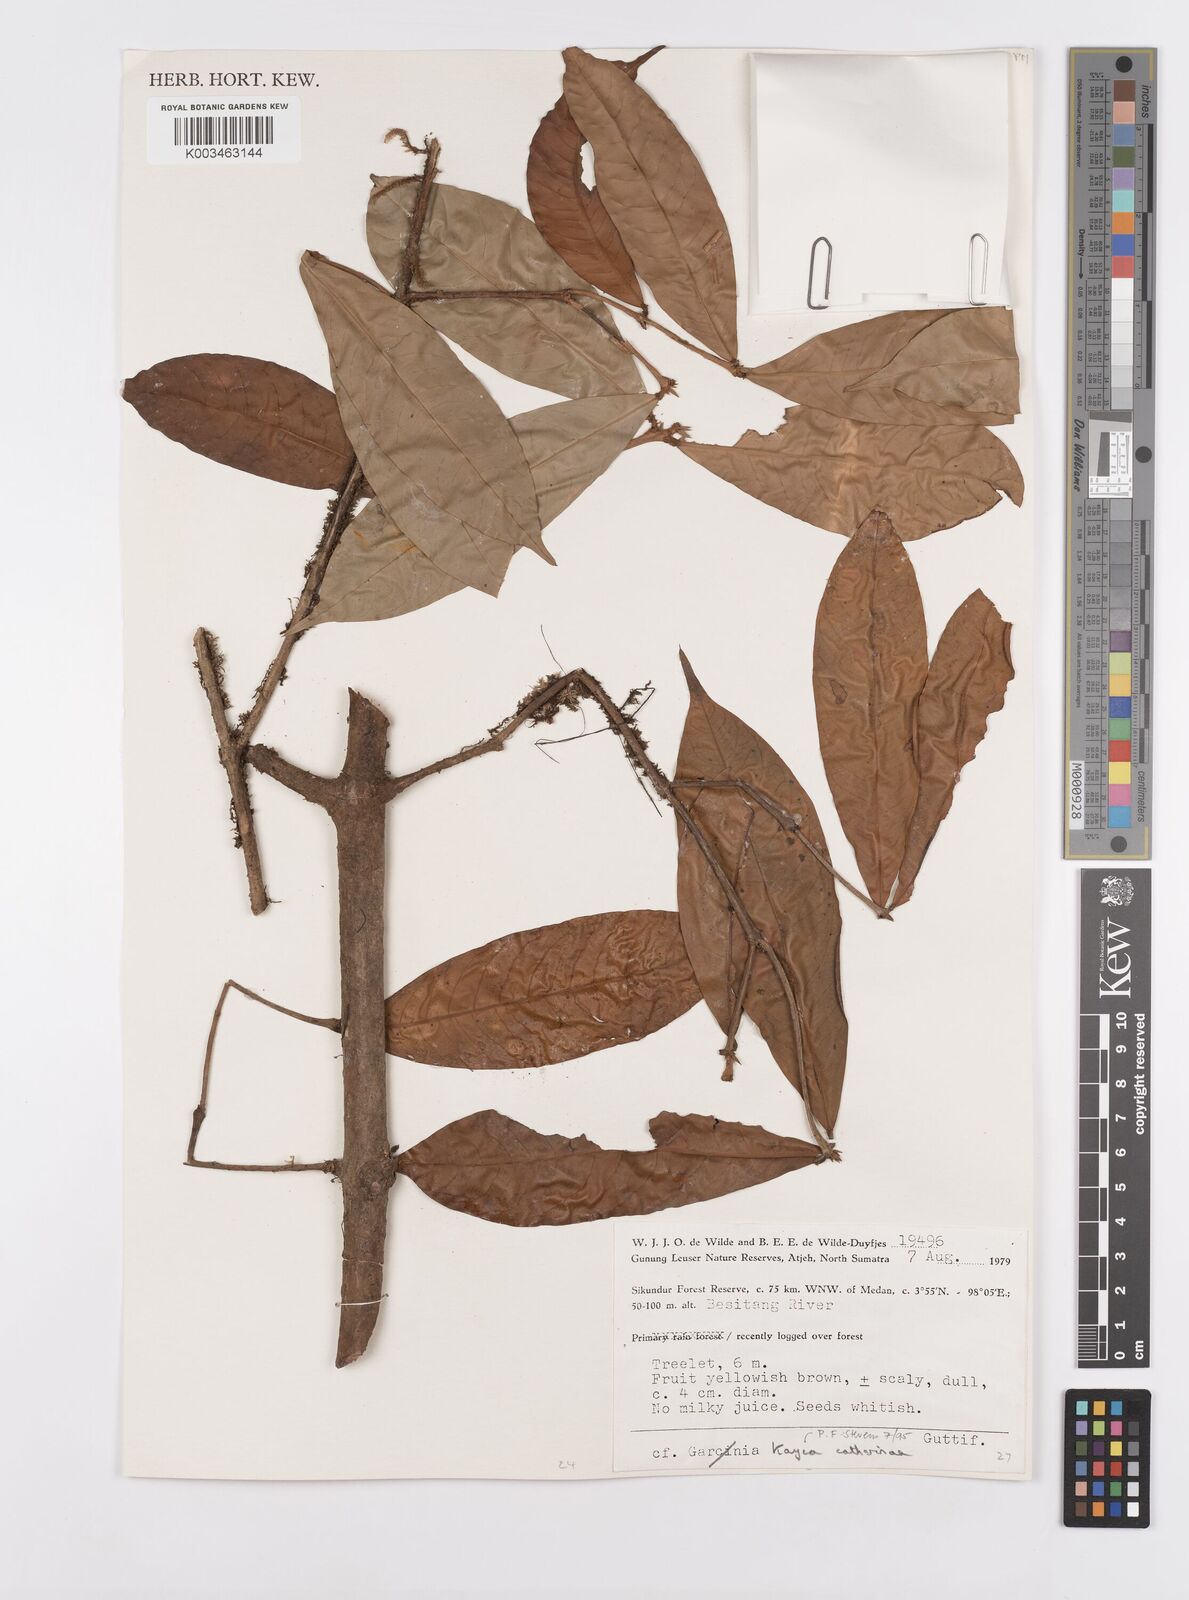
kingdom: Plantae
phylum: Tracheophyta
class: Magnoliopsida
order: Malpighiales
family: Calophyllaceae
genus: Kayea
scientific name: Kayea catharinae
